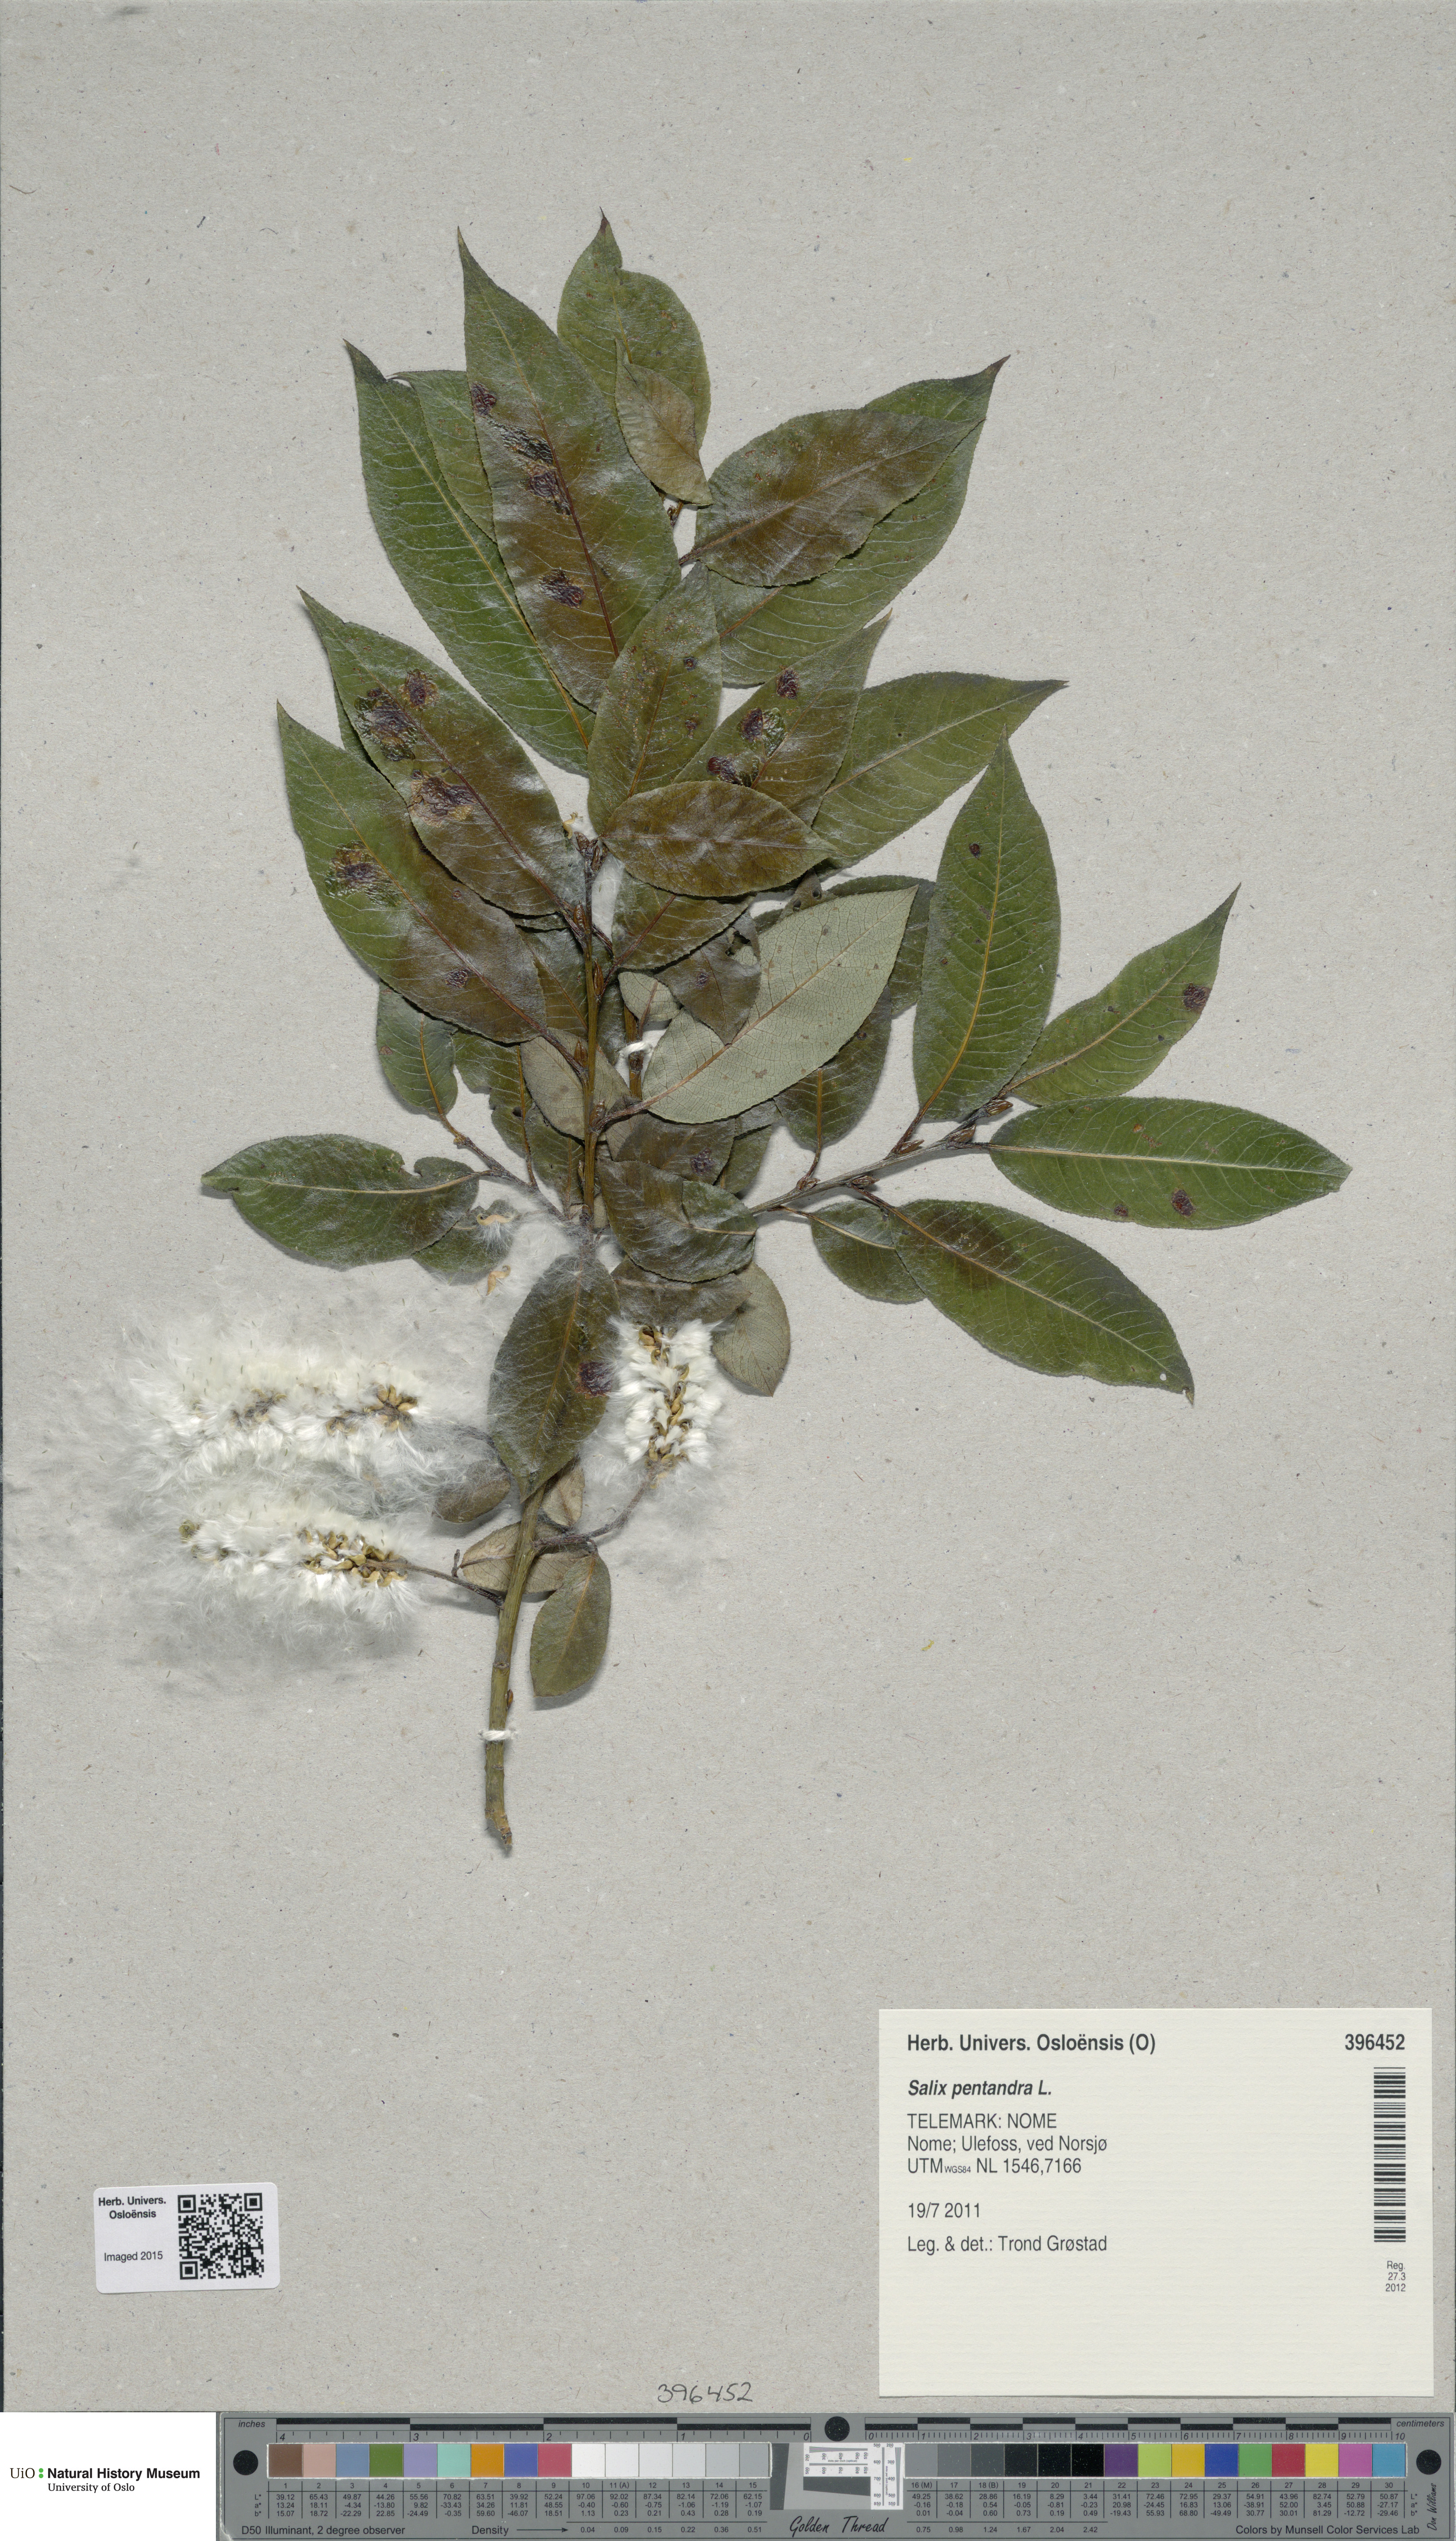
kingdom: Plantae
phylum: Tracheophyta
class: Magnoliopsida
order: Malpighiales
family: Salicaceae
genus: Salix
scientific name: Salix pentandra
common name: Bay willow
